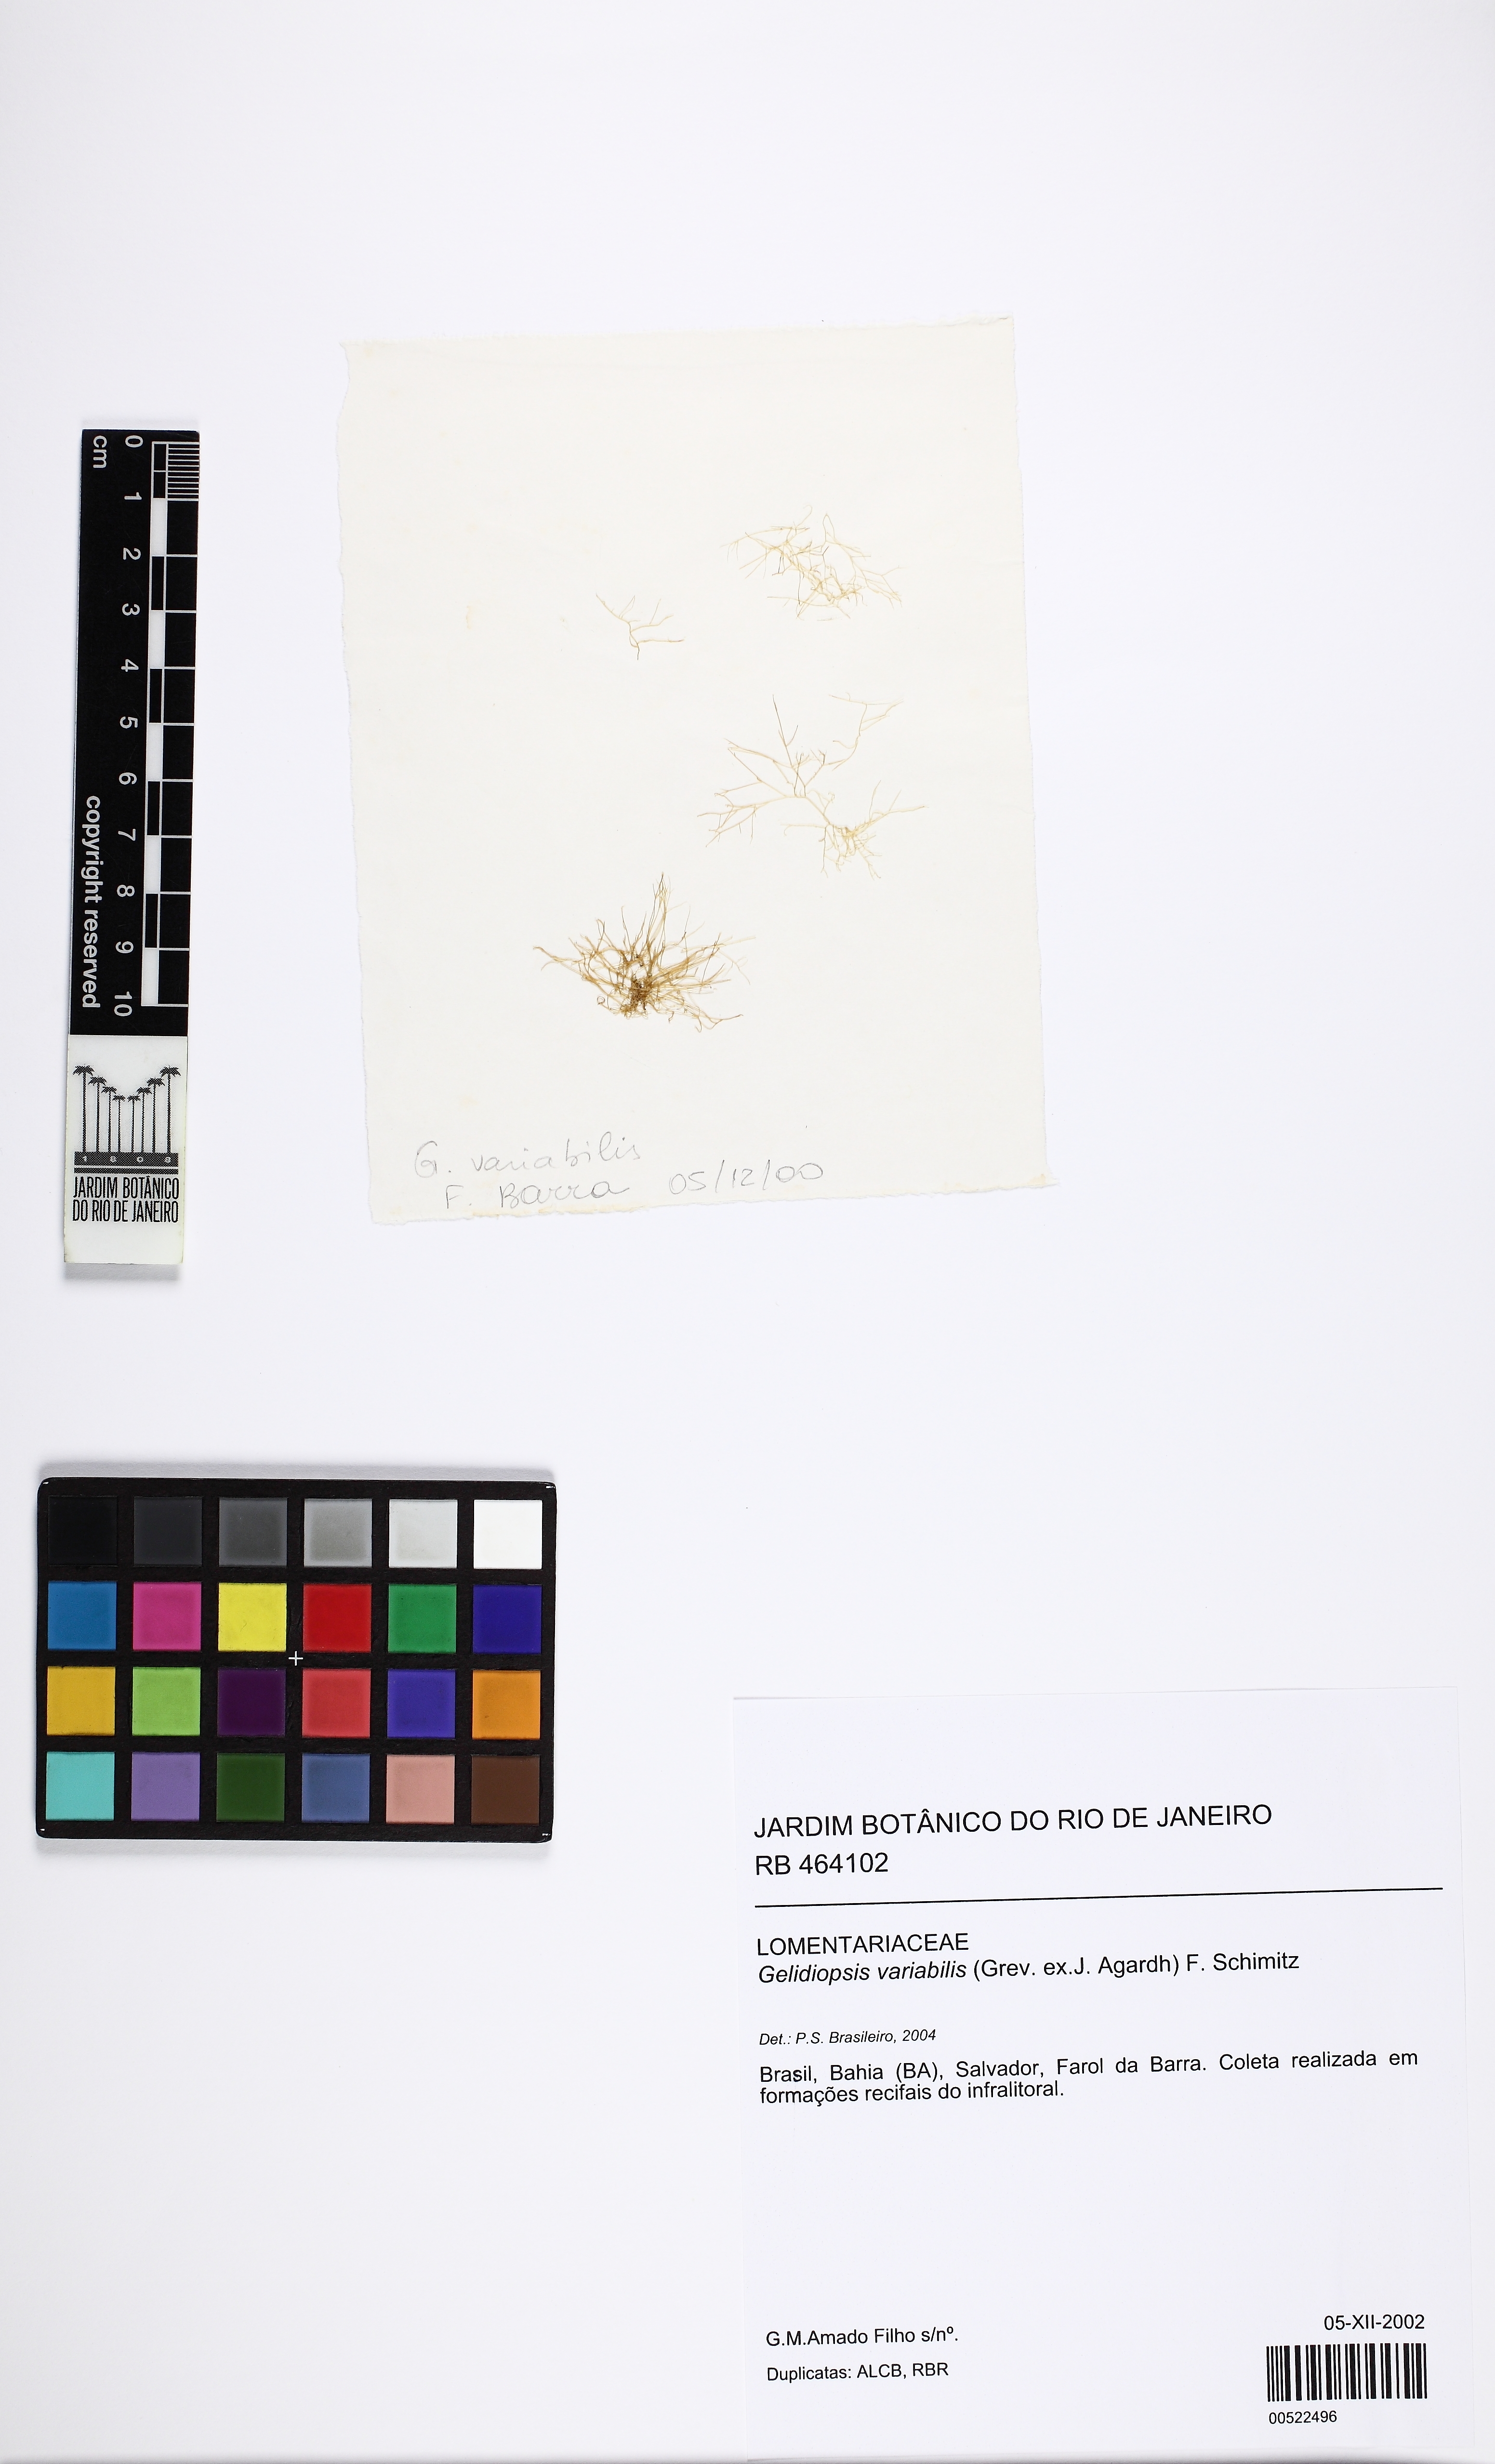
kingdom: Plantae
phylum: Rhodophyta
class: Florideophyceae
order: Rhodymeniales
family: Lomentariaceae
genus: Ceratodictyon
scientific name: Ceratodictyon variabile
